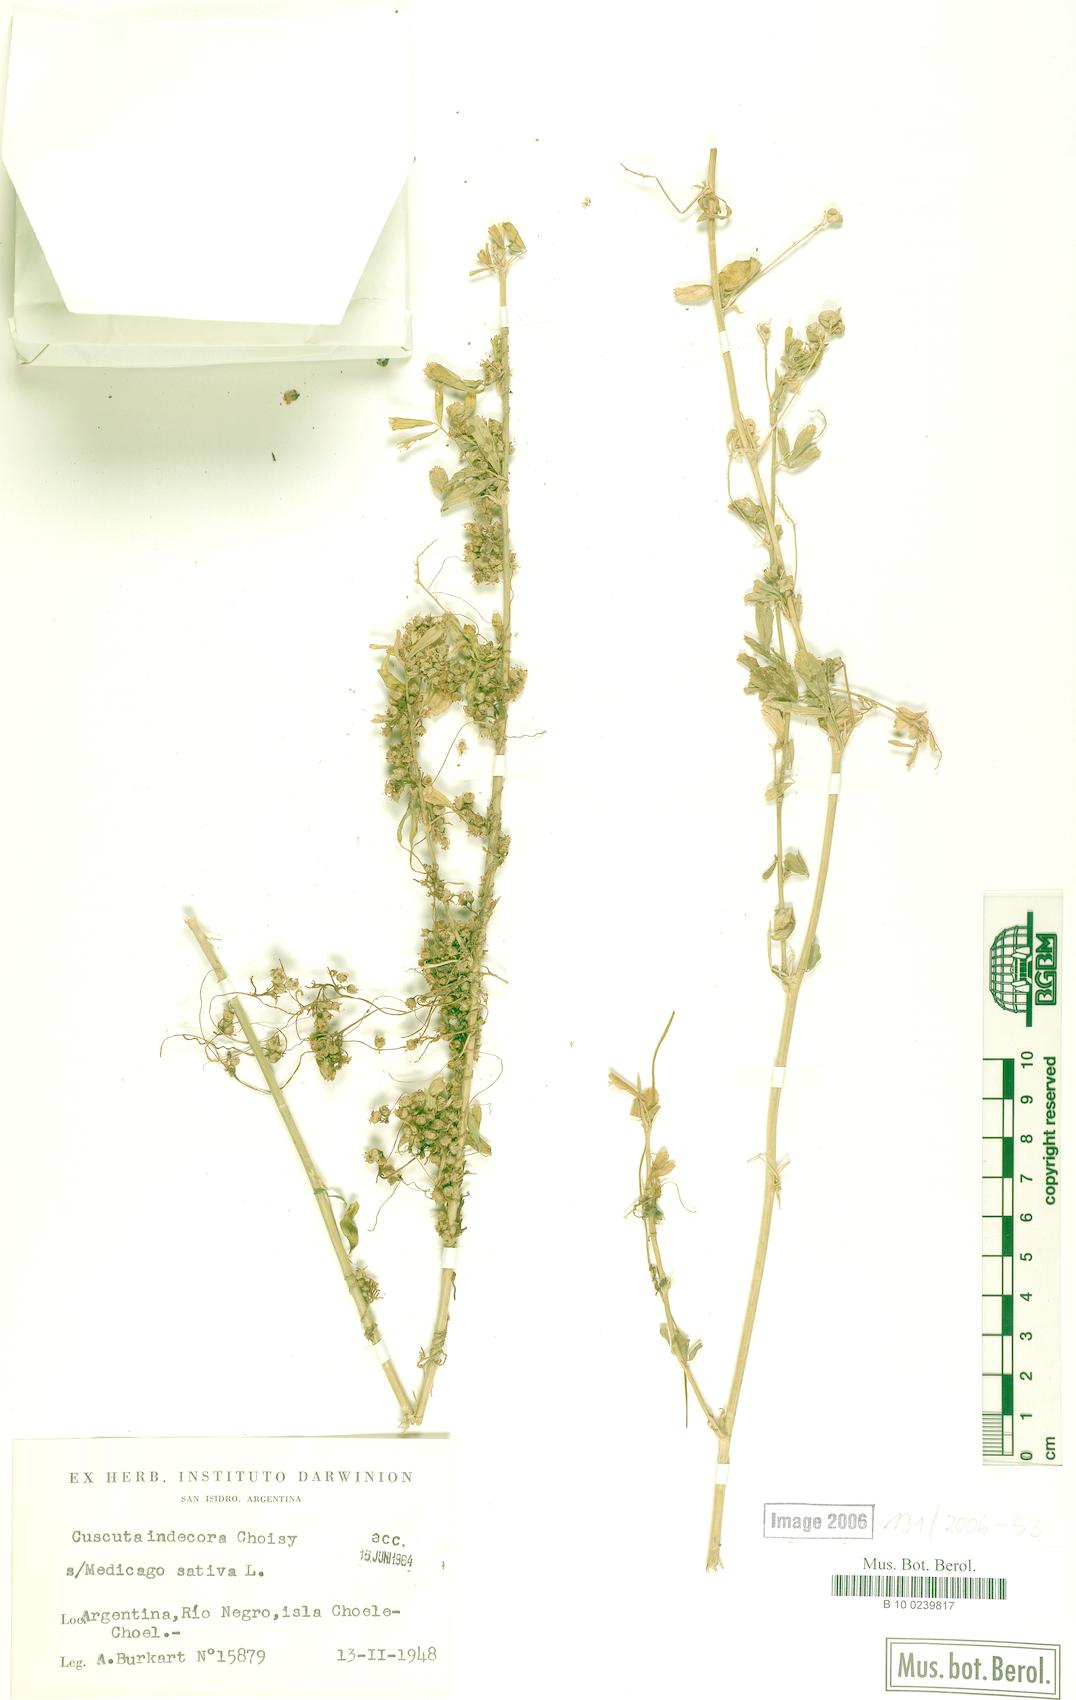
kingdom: Plantae
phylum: Tracheophyta
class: Magnoliopsida
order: Solanales
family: Convolvulaceae
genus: Cuscuta
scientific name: Cuscuta indecora
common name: Large-seed dodder
